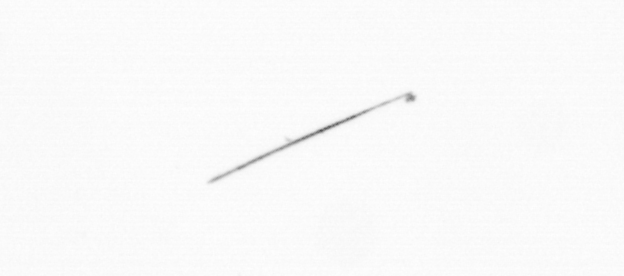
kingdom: Chromista
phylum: Ochrophyta
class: Bacillariophyceae
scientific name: Bacillariophyceae
